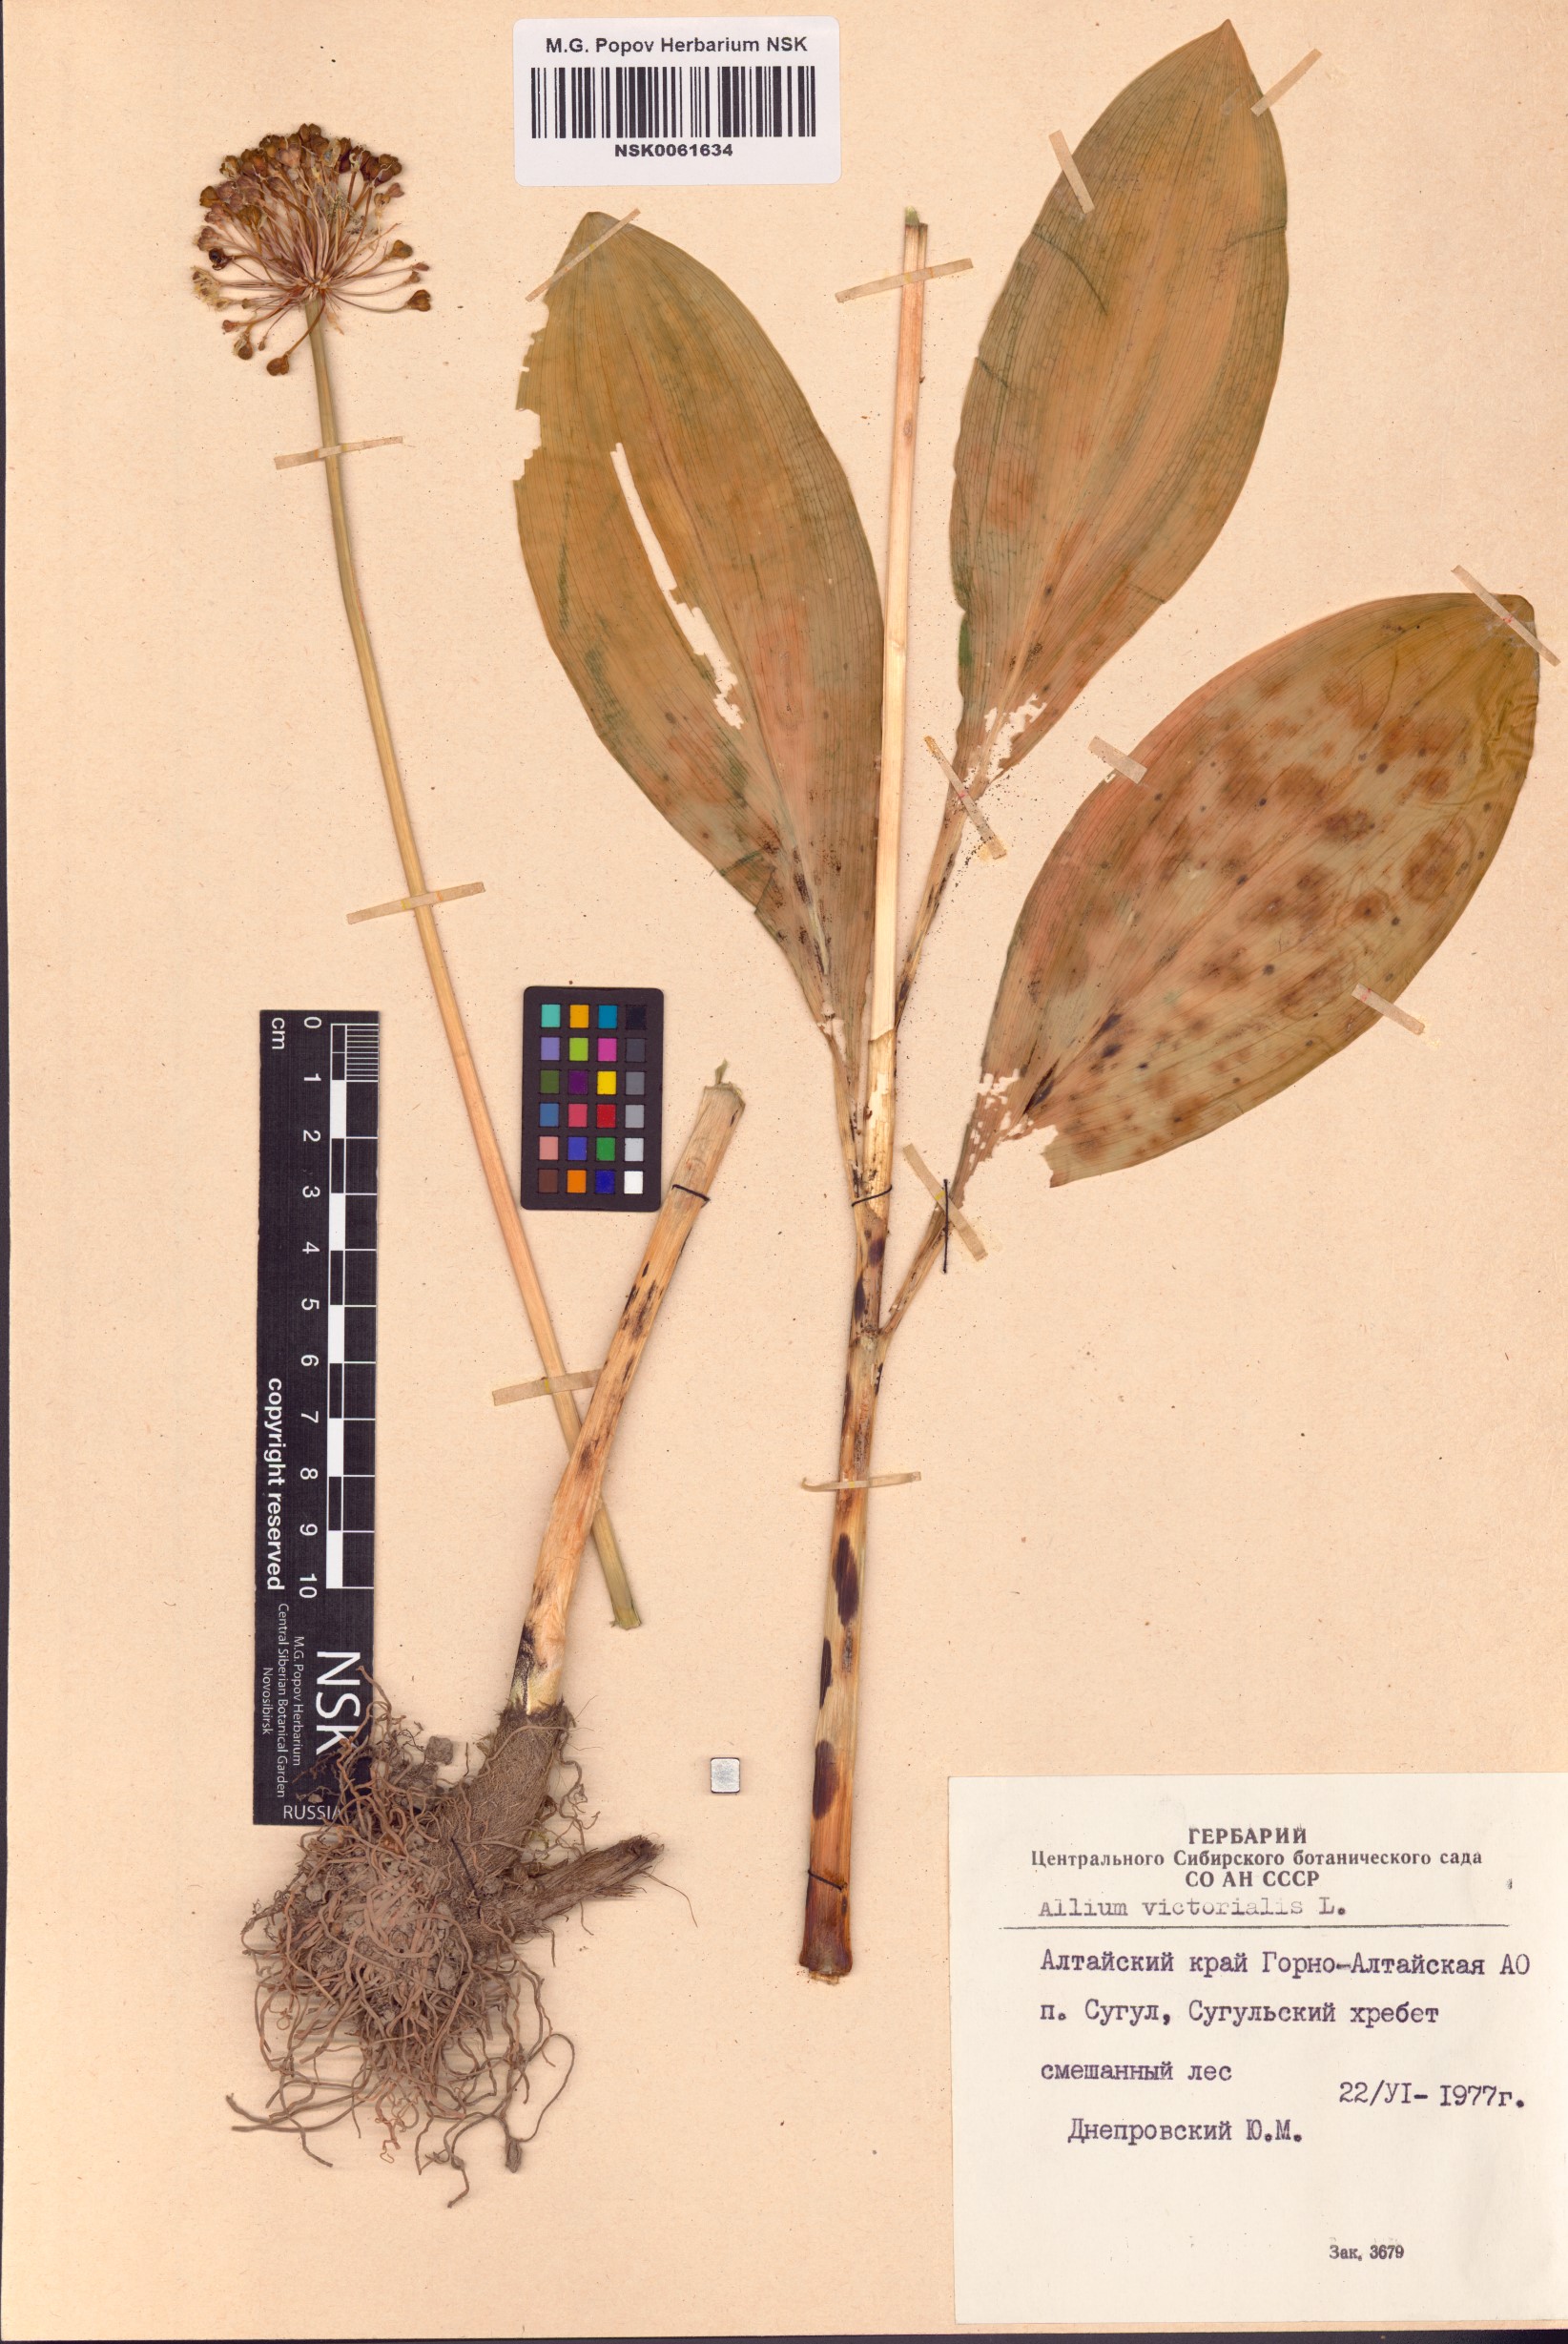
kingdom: Plantae
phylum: Tracheophyta
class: Liliopsida
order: Asparagales
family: Amaryllidaceae
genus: Allium
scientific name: Allium victorialis
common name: Alpine leek
